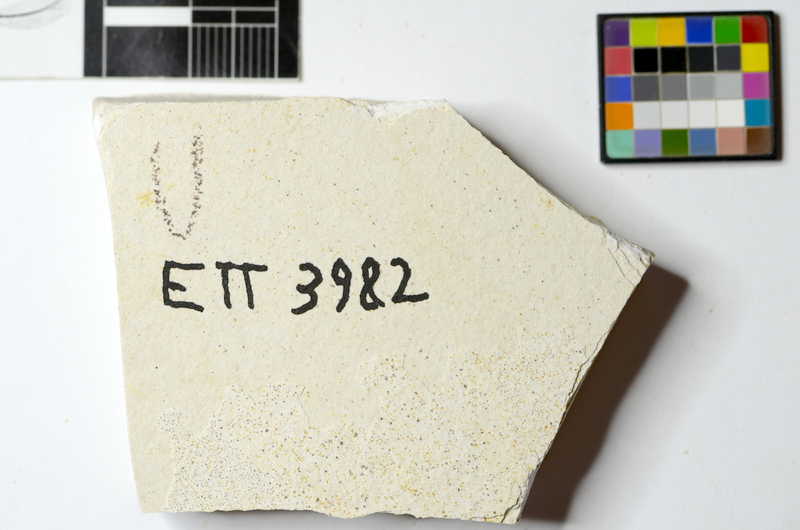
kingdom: Animalia
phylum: Chordata
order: Salmoniformes
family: Orthogonikleithridae
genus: Orthogonikleithrus
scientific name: Orthogonikleithrus hoelli
